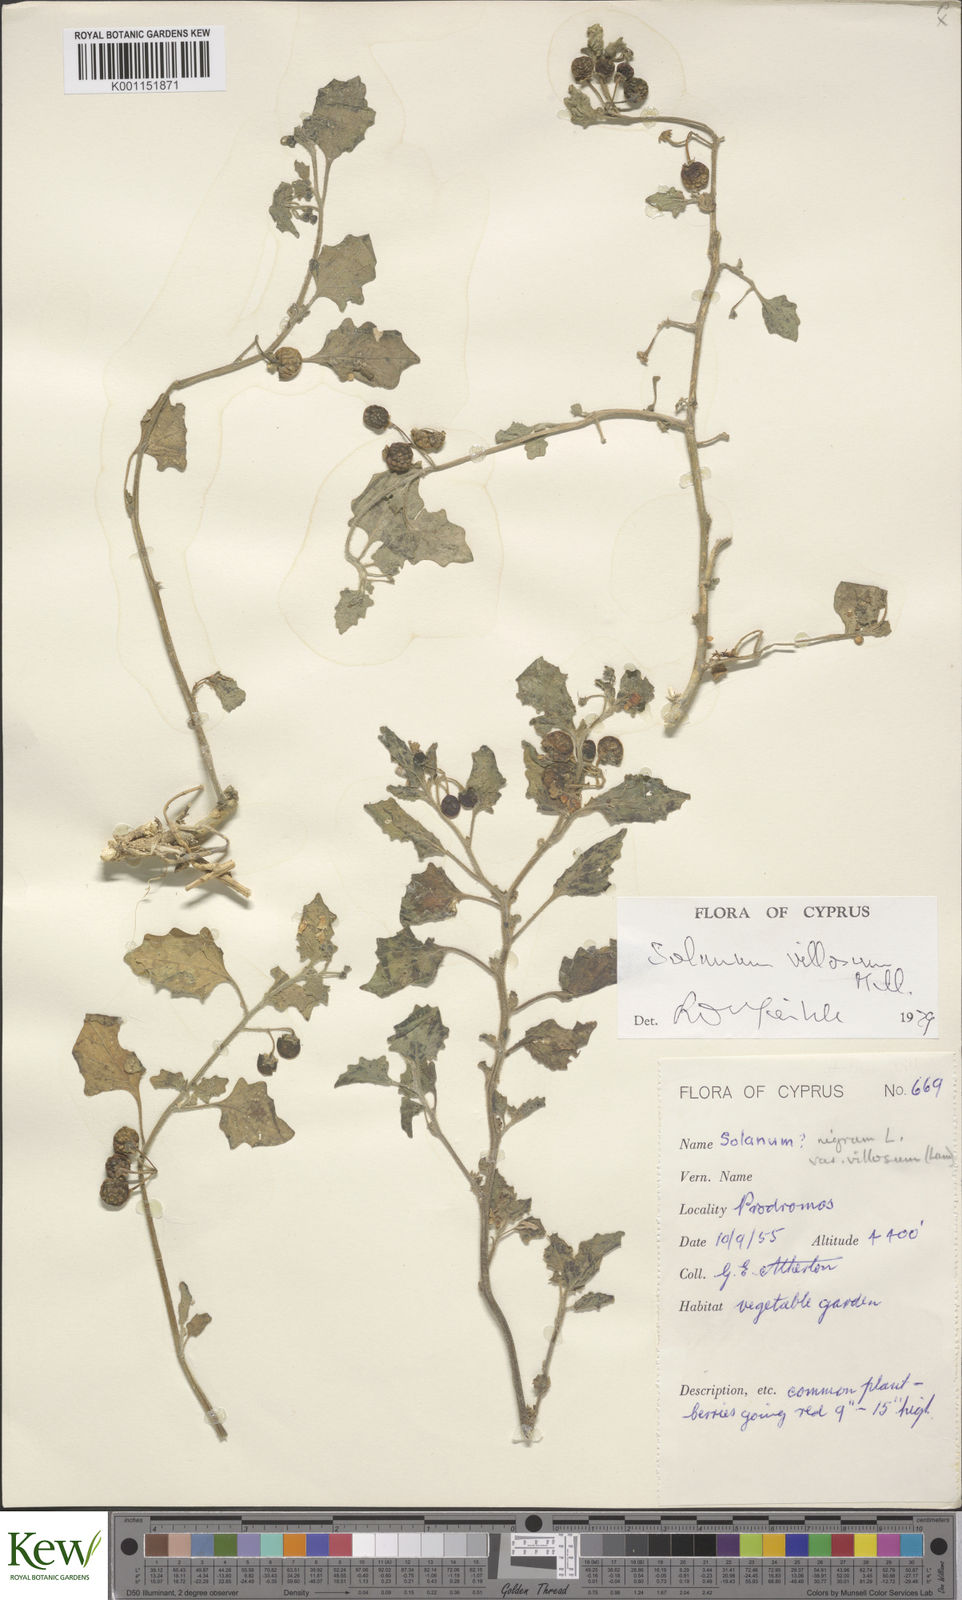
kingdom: Plantae
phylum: Tracheophyta
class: Magnoliopsida
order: Solanales
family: Solanaceae
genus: Solanum
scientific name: Solanum villosum
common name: Red nightshade
